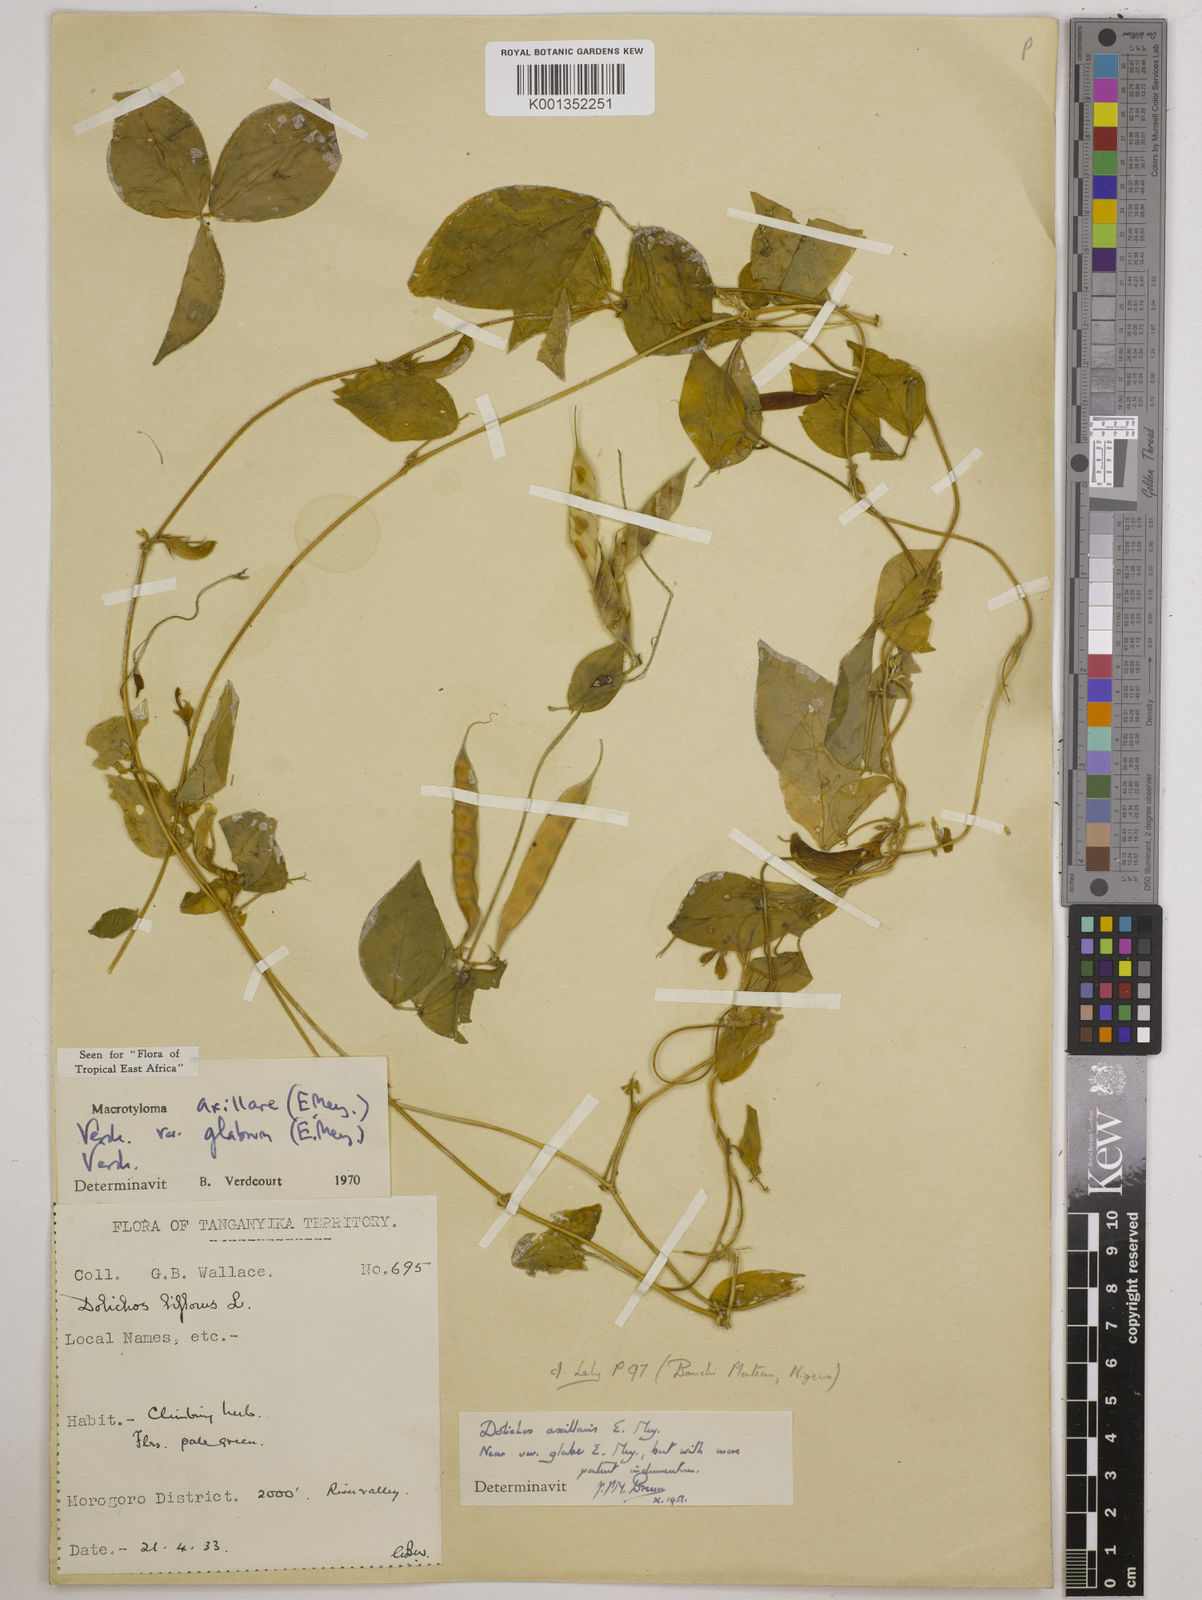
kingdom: Plantae
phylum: Tracheophyta
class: Magnoliopsida
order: Fabales
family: Fabaceae
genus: Macrotyloma
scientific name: Macrotyloma
